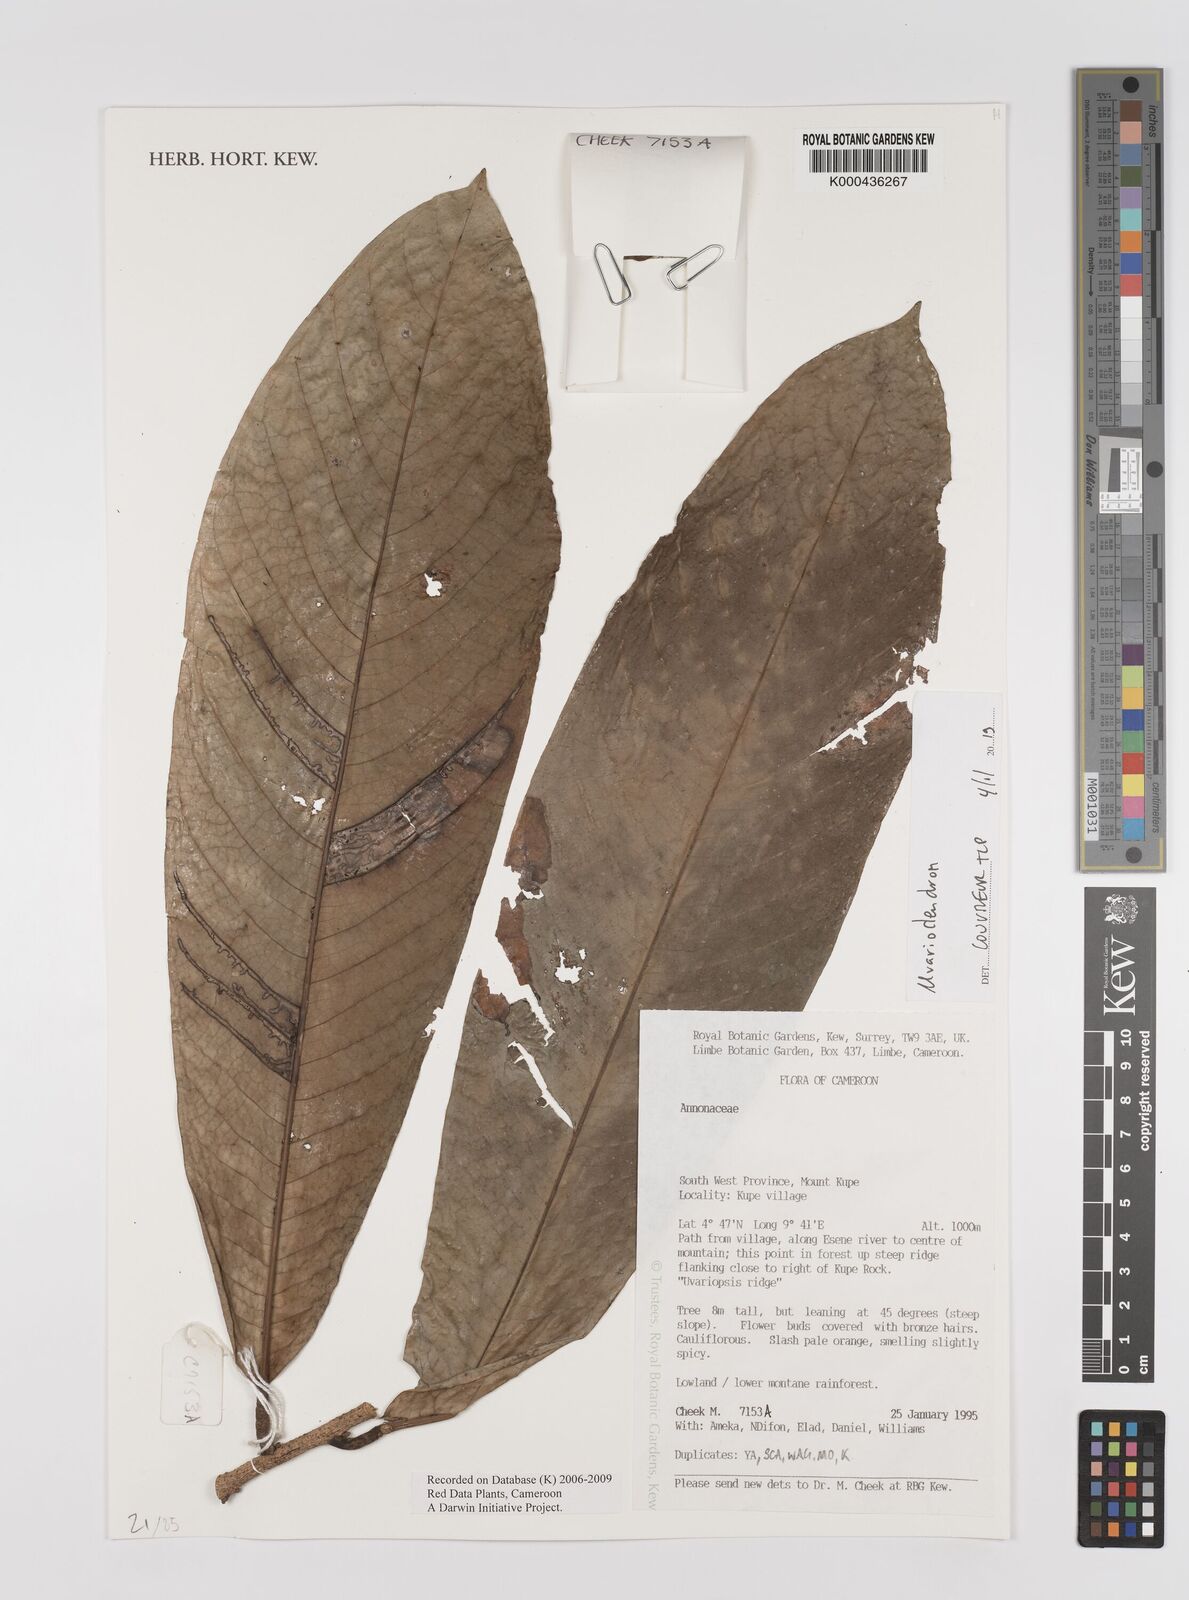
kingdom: Plantae
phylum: Tracheophyta
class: Magnoliopsida
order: Magnoliales
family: Annonaceae
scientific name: Annonaceae
